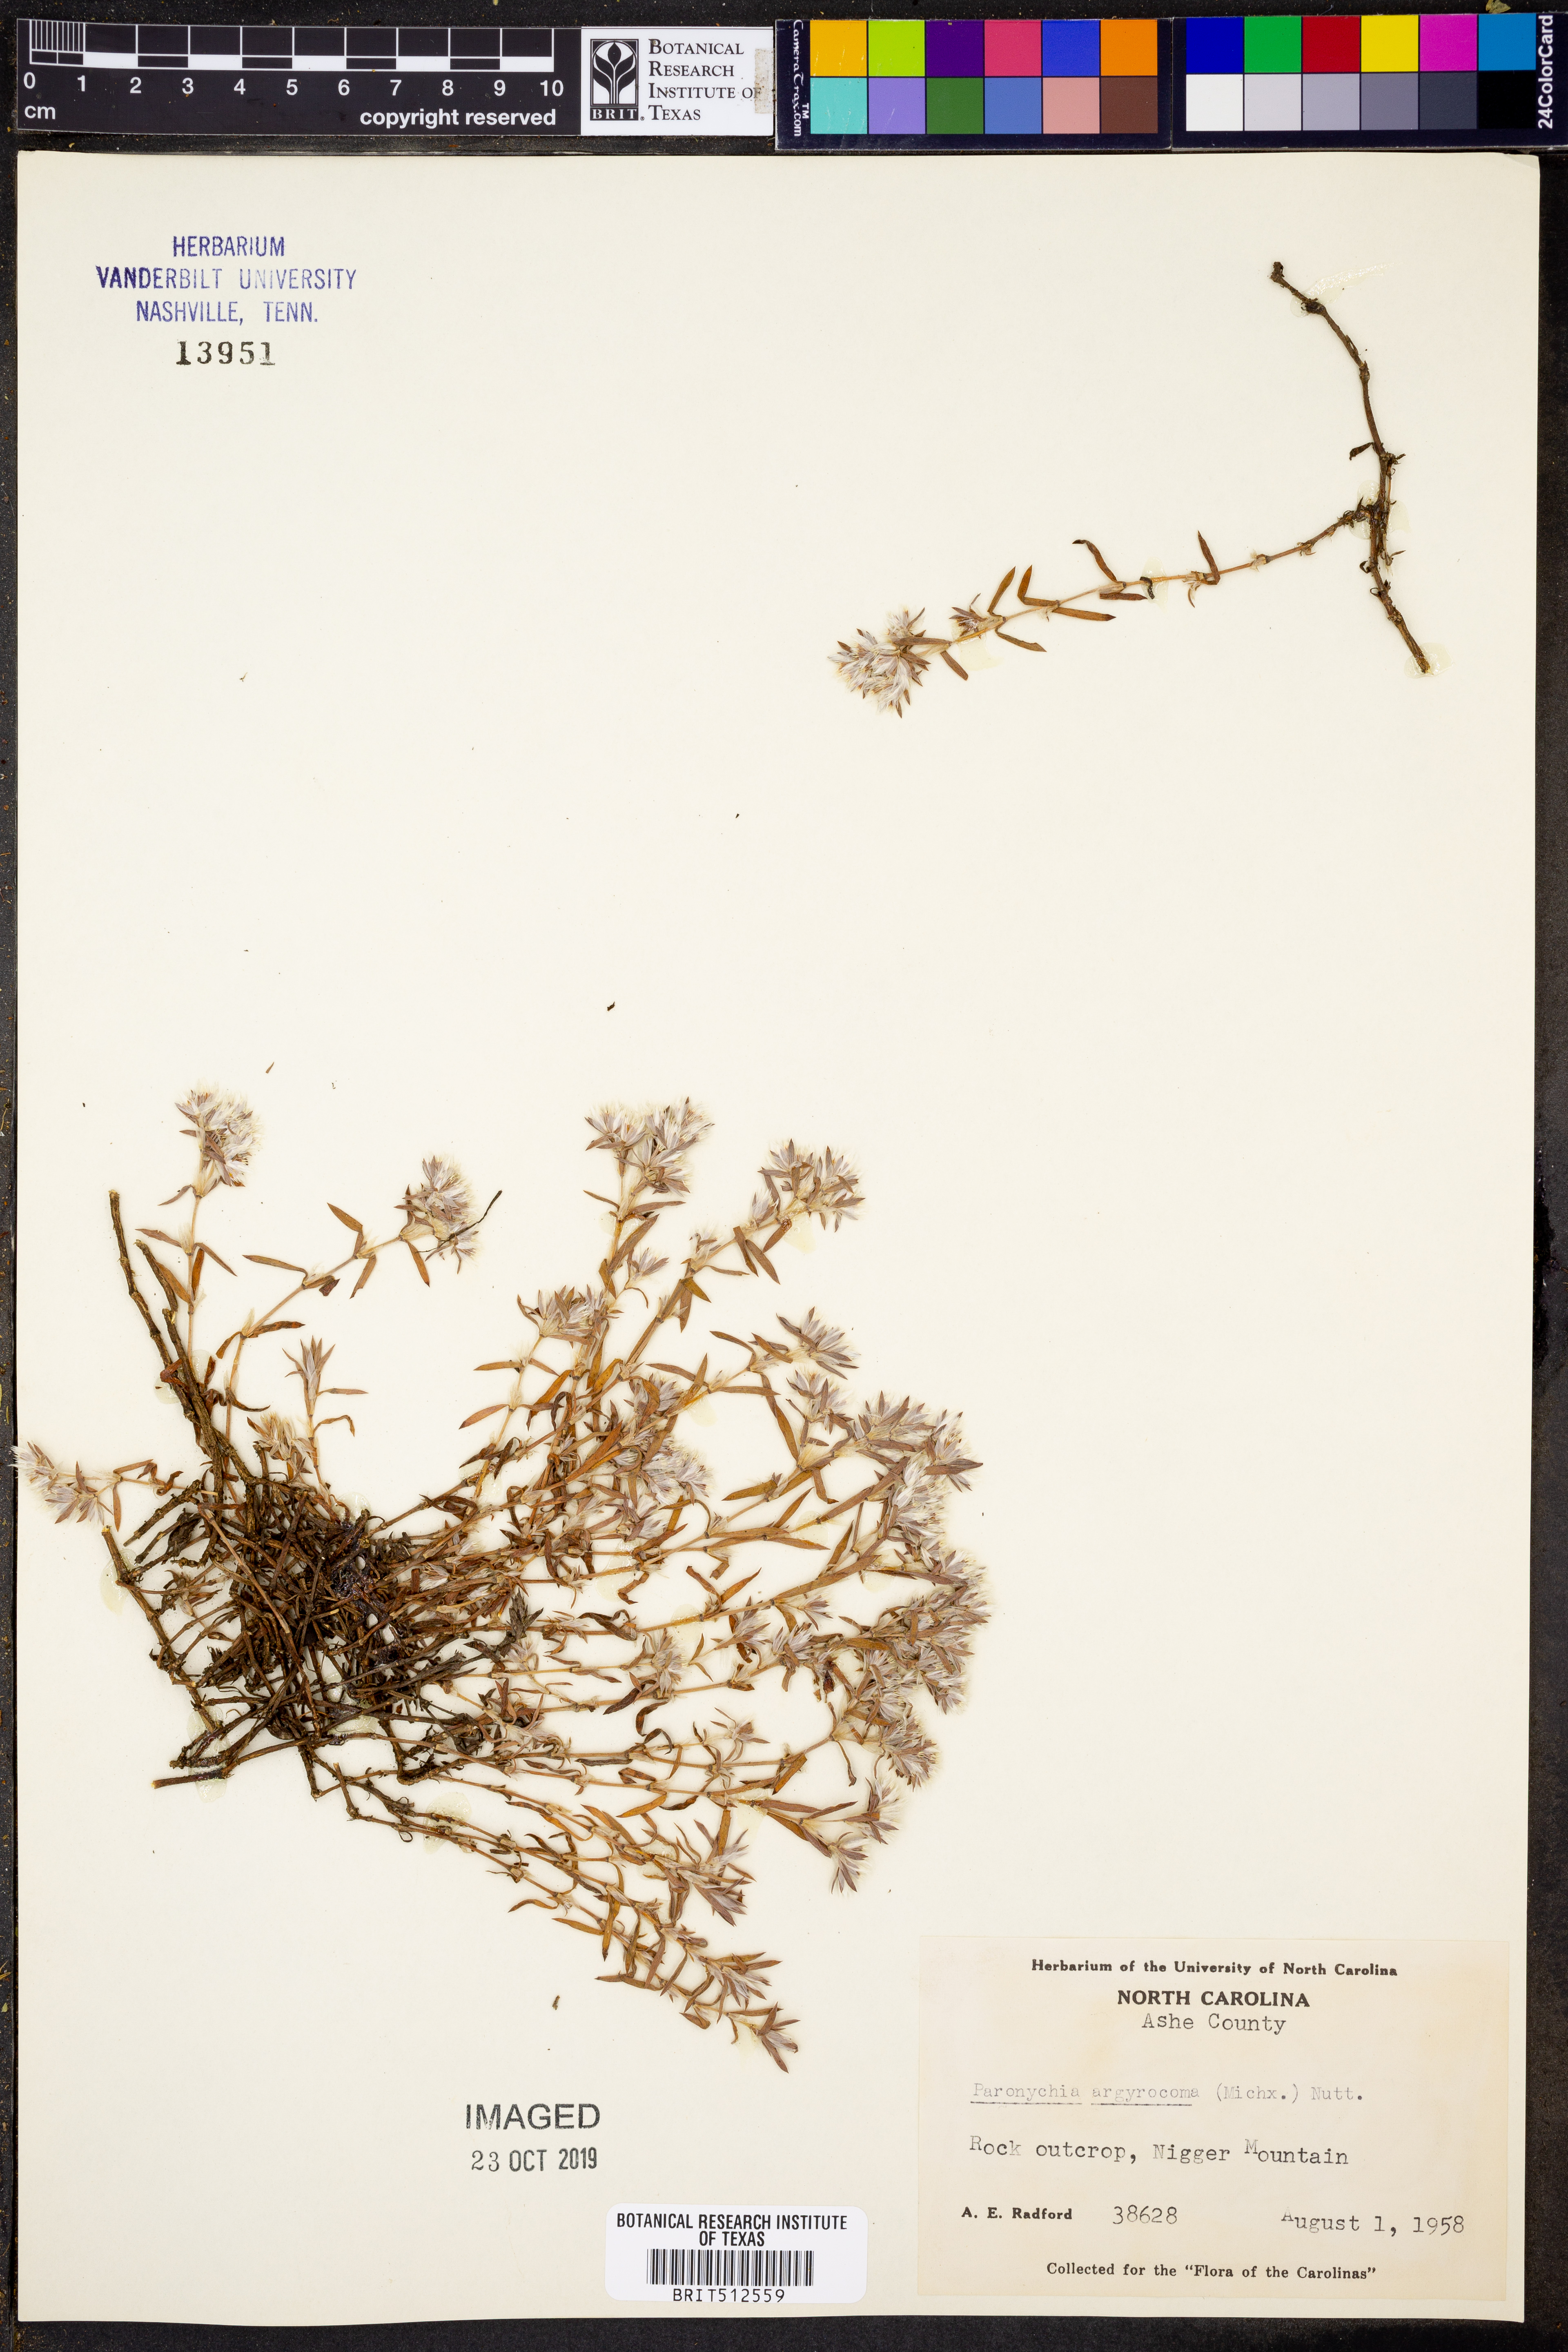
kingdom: Plantae
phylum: Tracheophyta
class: Magnoliopsida
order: Caryophyllales
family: Caryophyllaceae
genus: Paronychia
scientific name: Paronychia argyrocoma
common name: Silverling
